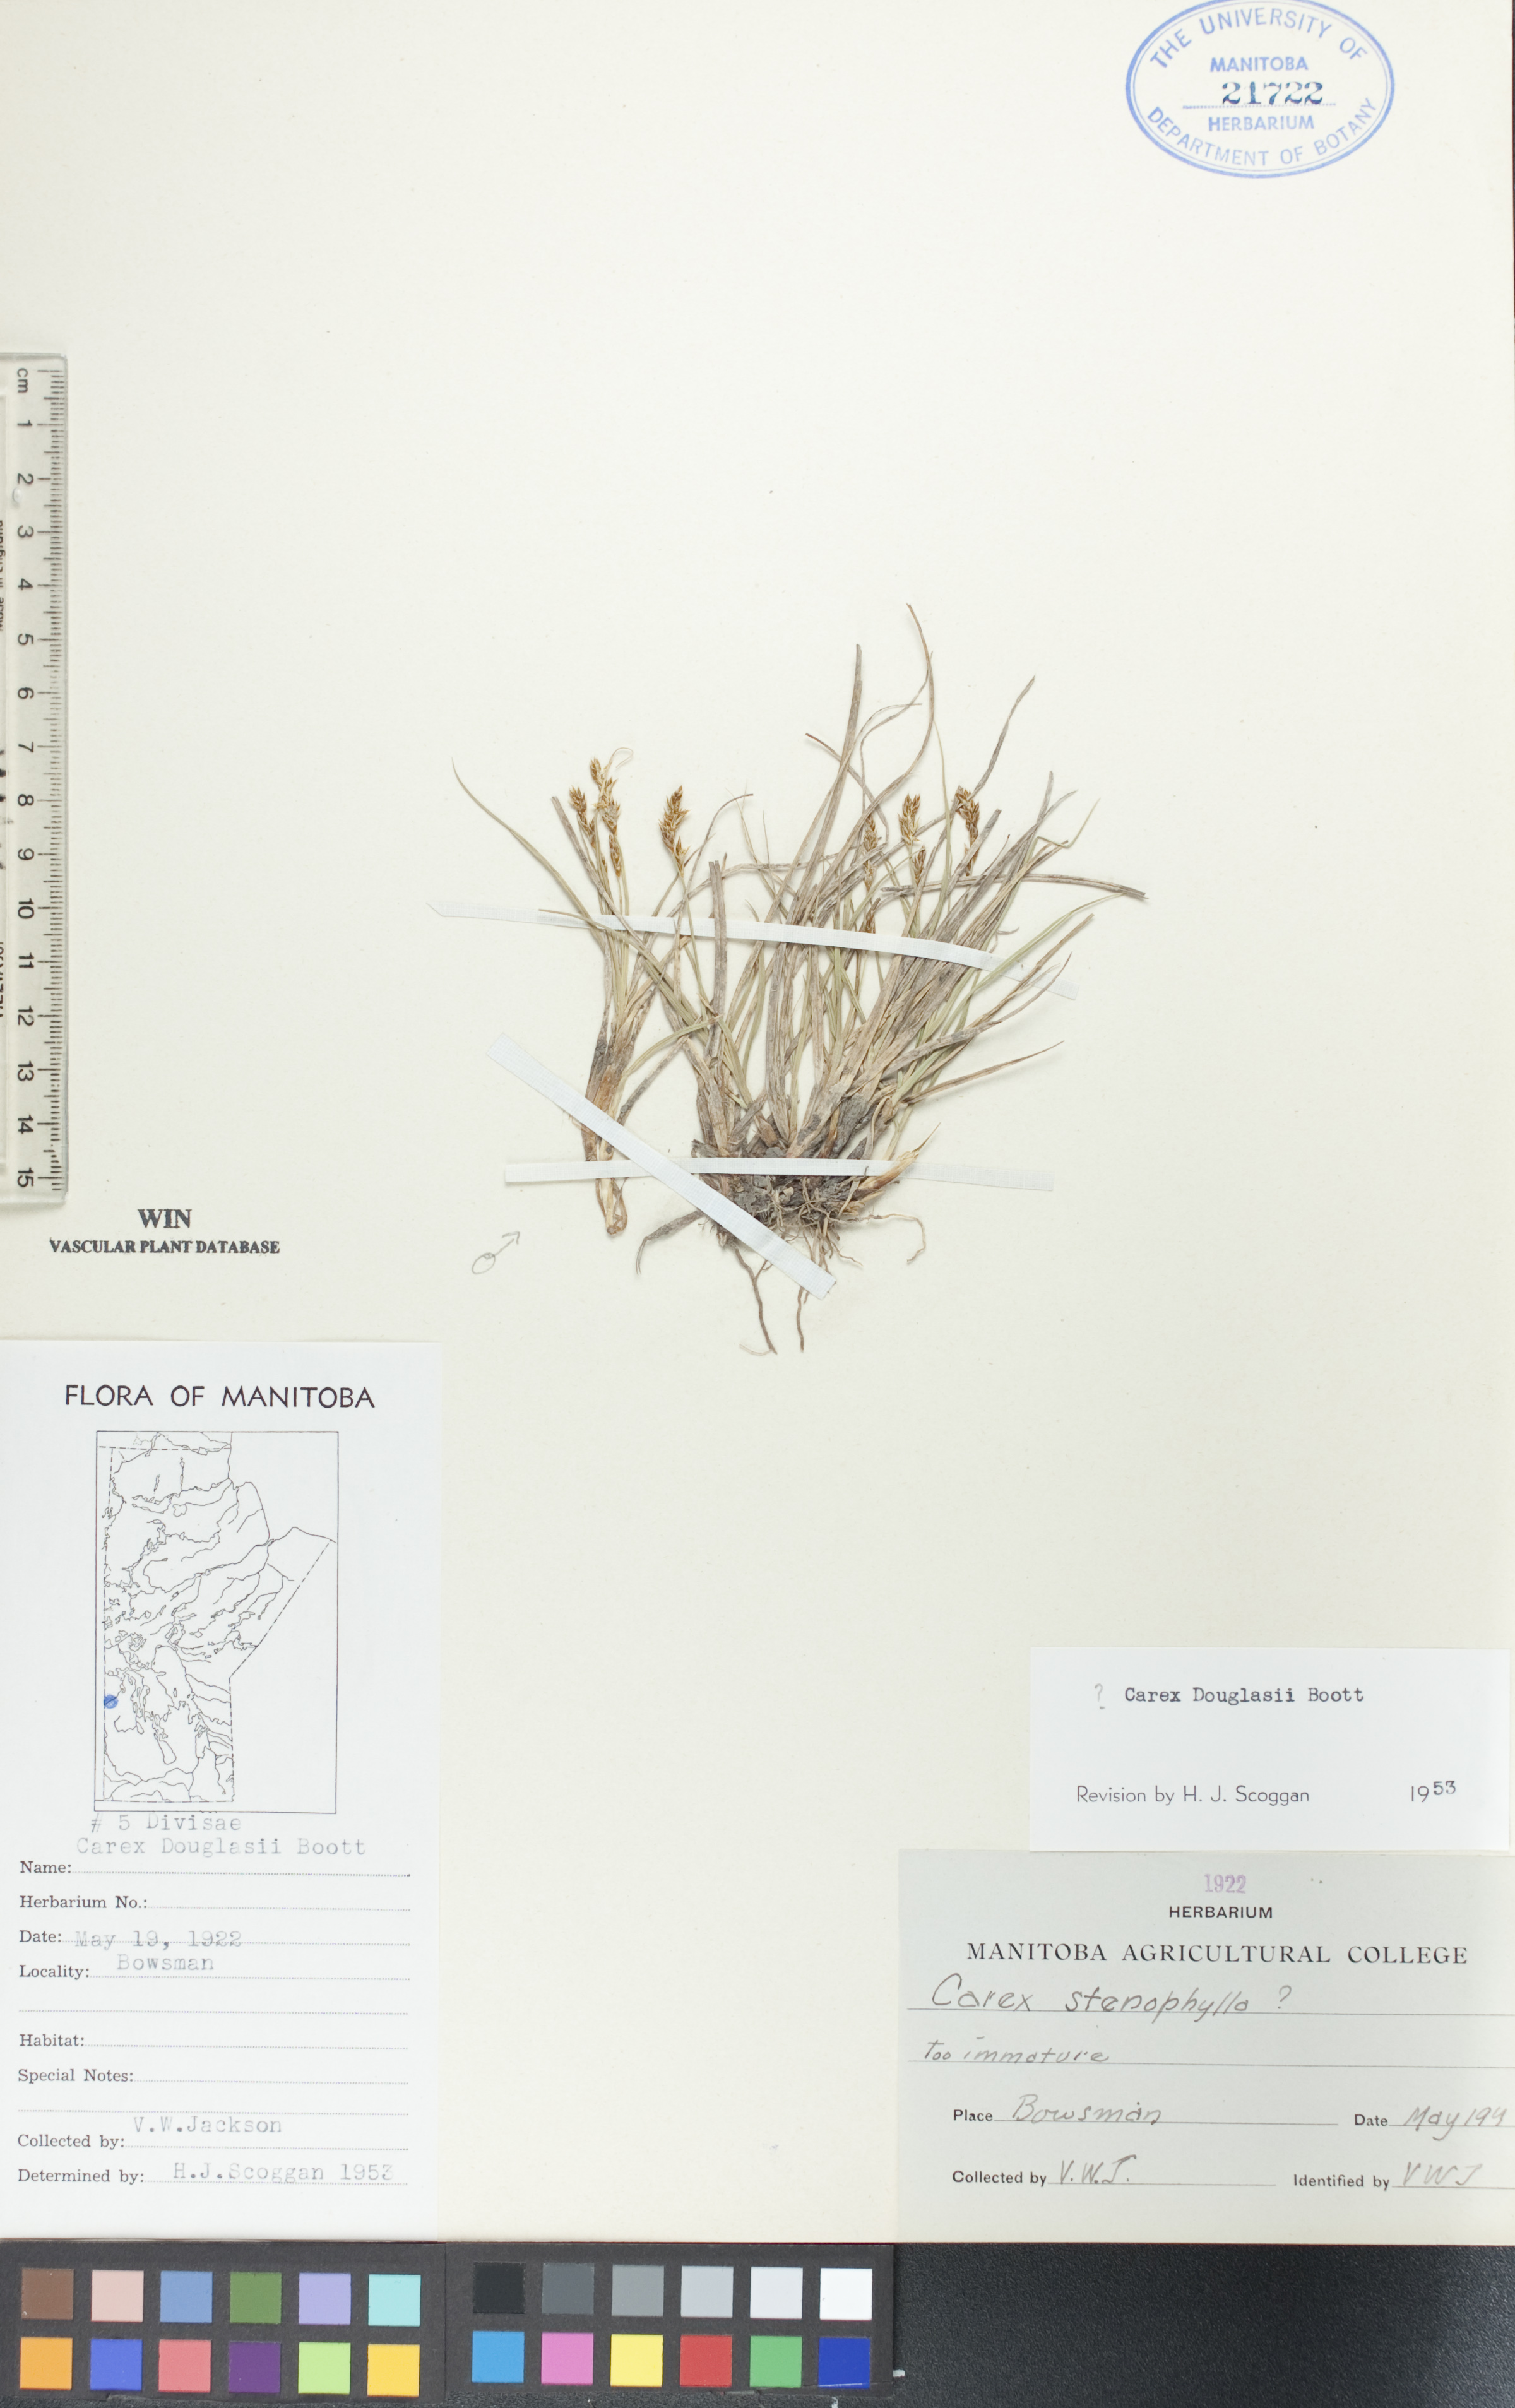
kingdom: Plantae
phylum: Tracheophyta
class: Liliopsida
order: Poales
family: Cyperaceae
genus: Carex
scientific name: Carex douglasii
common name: Douglas' sedge
